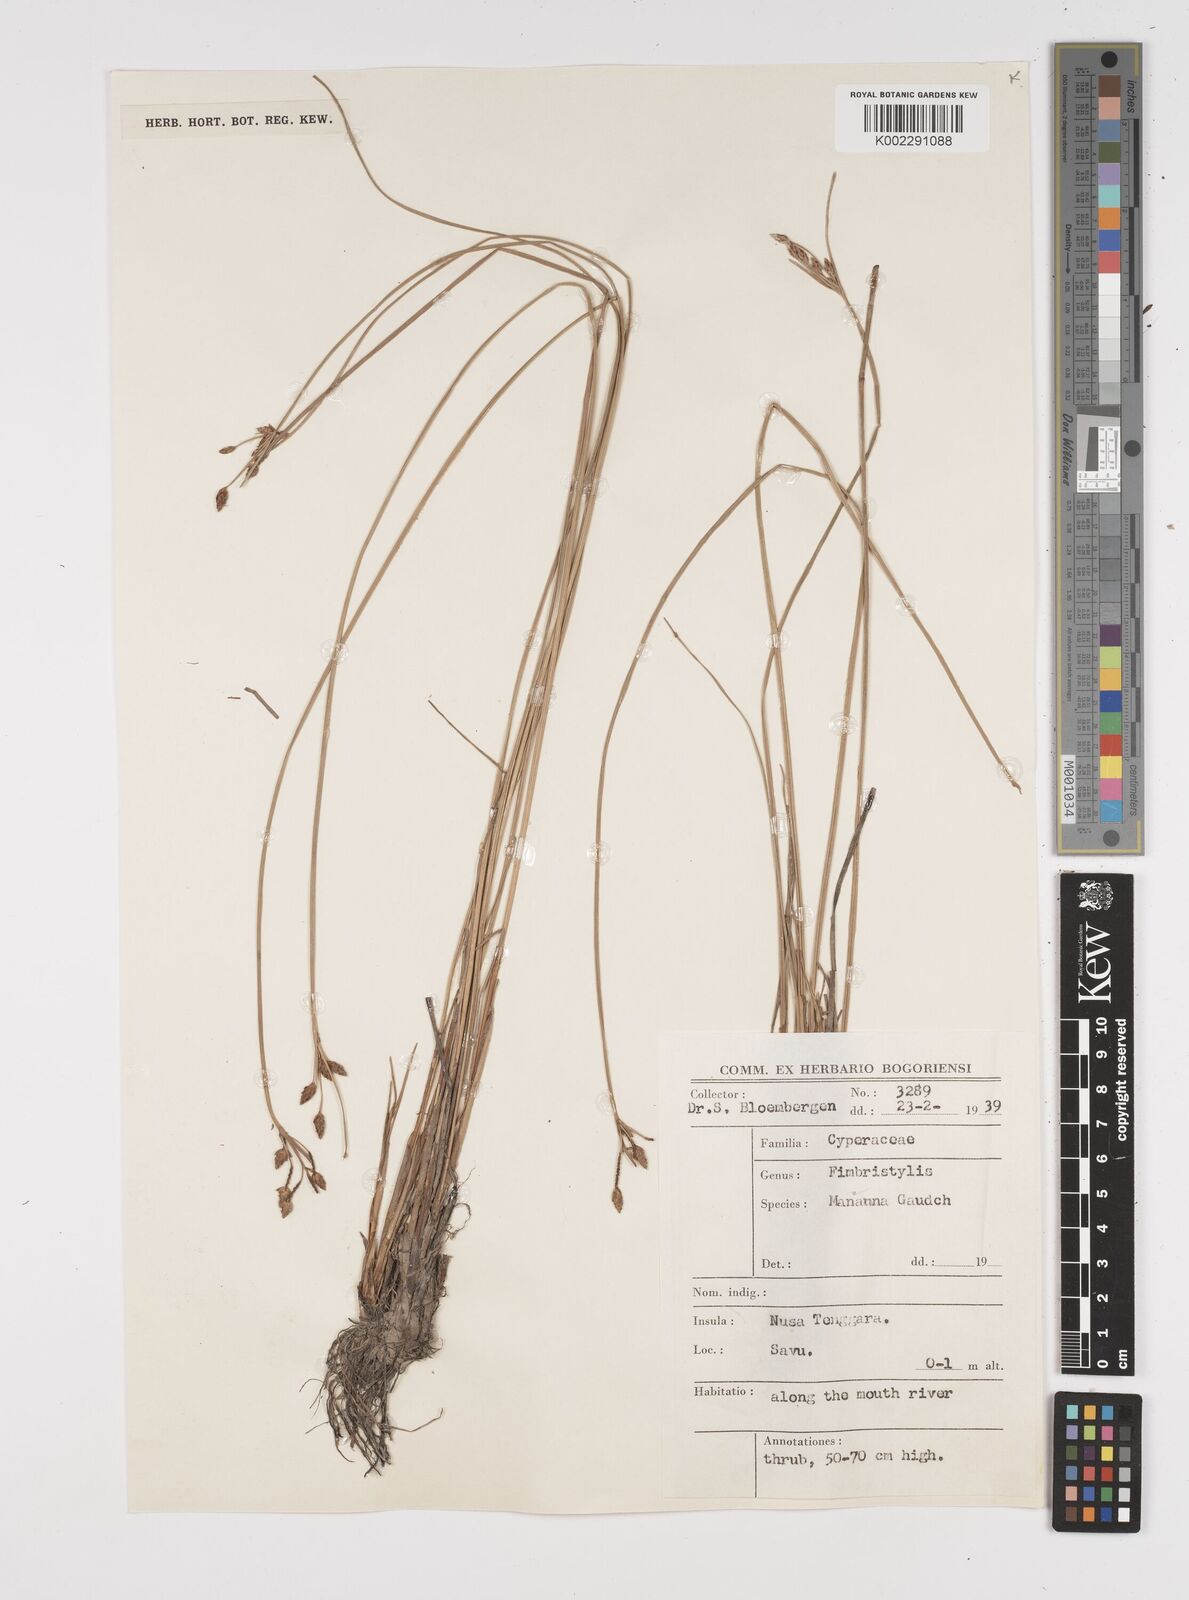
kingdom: Plantae
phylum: Tracheophyta
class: Liliopsida
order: Poales
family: Cyperaceae
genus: Fimbristylis
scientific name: Fimbristylis tristachya
